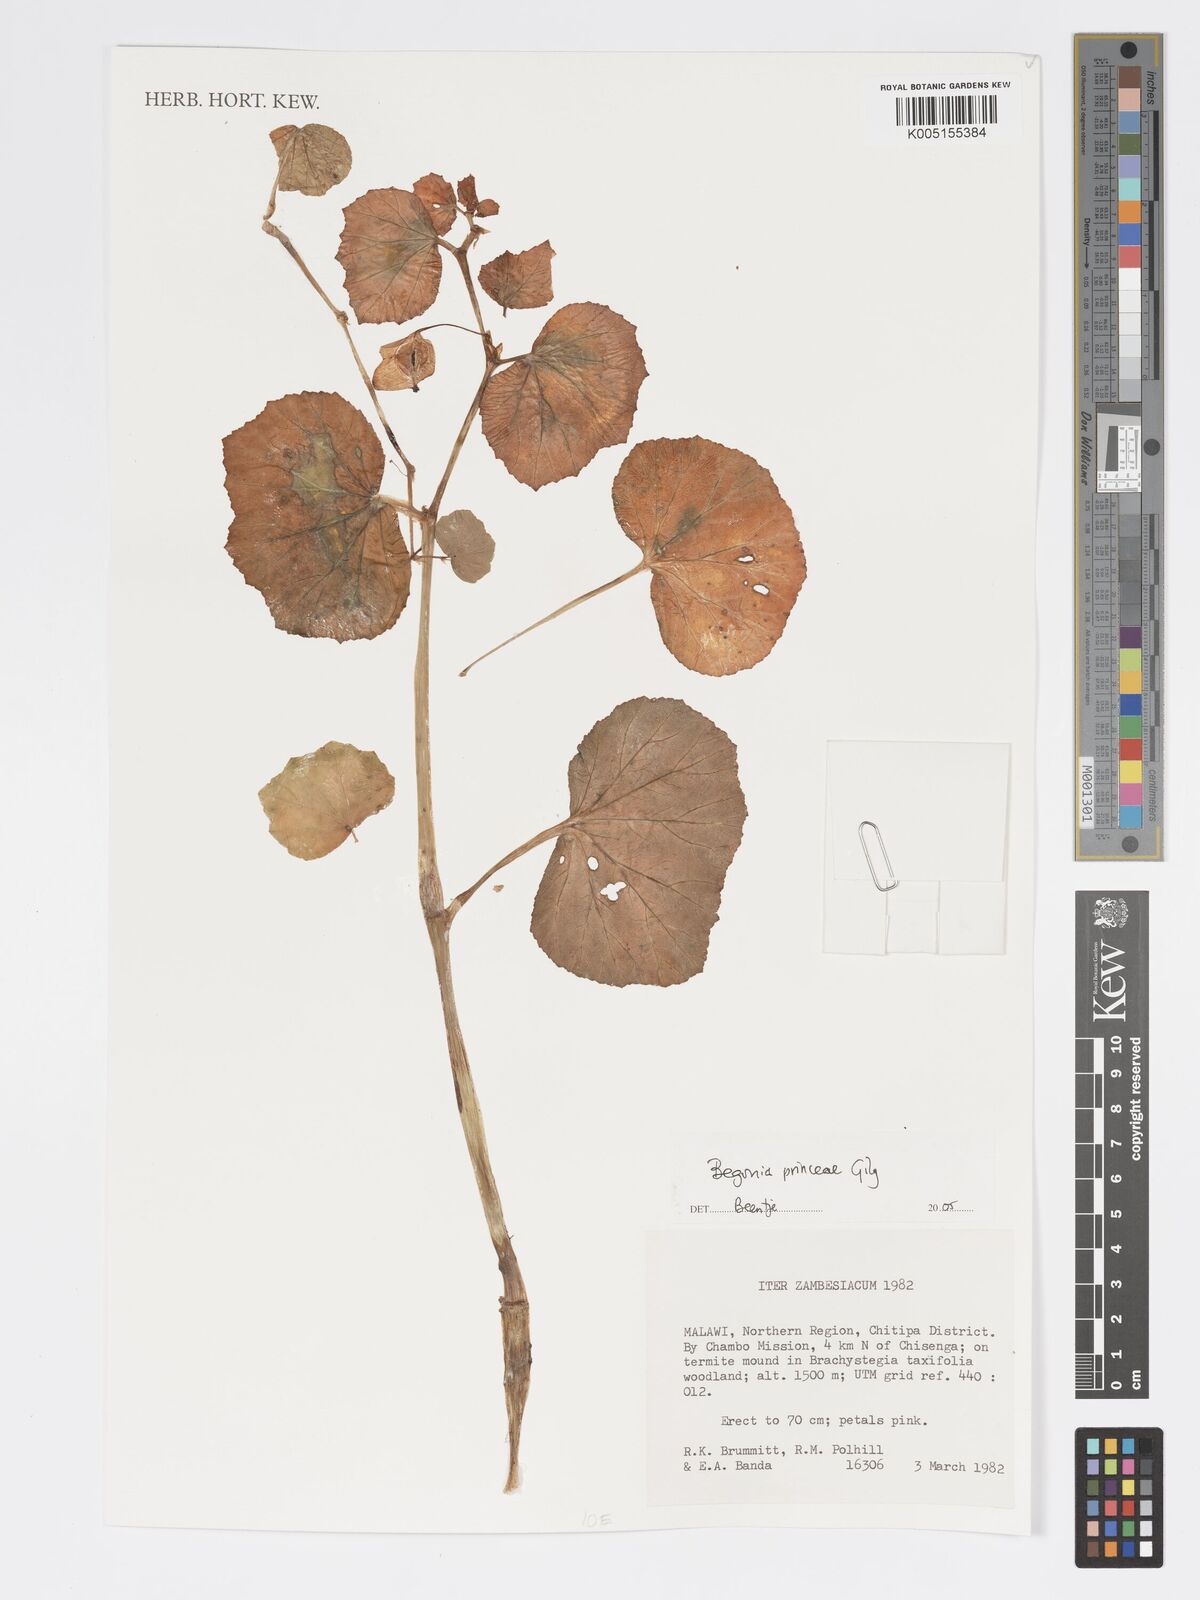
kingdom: Plantae
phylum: Tracheophyta
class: Magnoliopsida
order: Cucurbitales
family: Begoniaceae
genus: Begonia
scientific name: Begonia princeae
